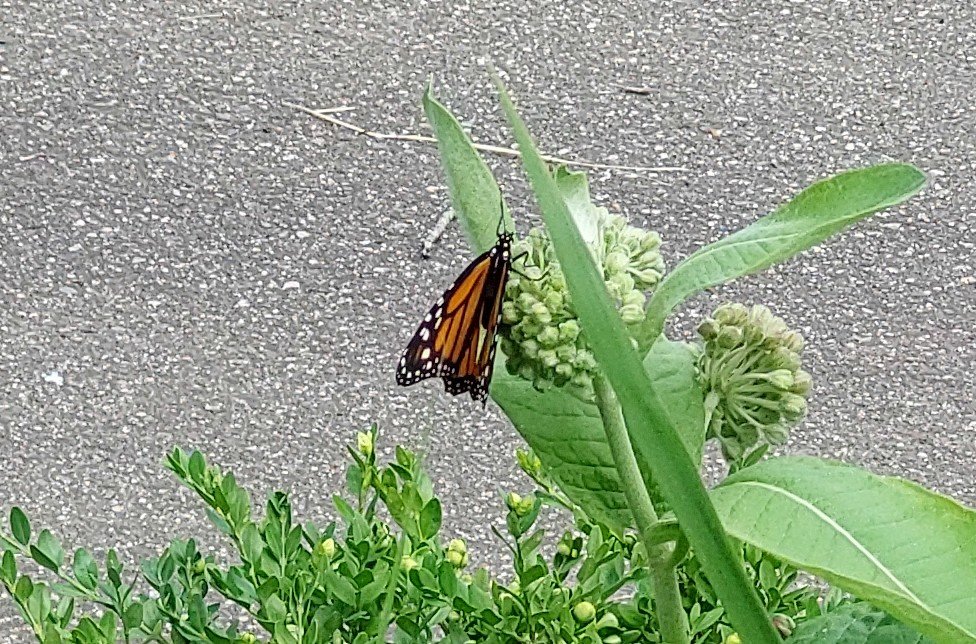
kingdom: Animalia
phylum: Arthropoda
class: Insecta
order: Lepidoptera
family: Nymphalidae
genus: Danaus
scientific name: Danaus plexippus
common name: Monarch
